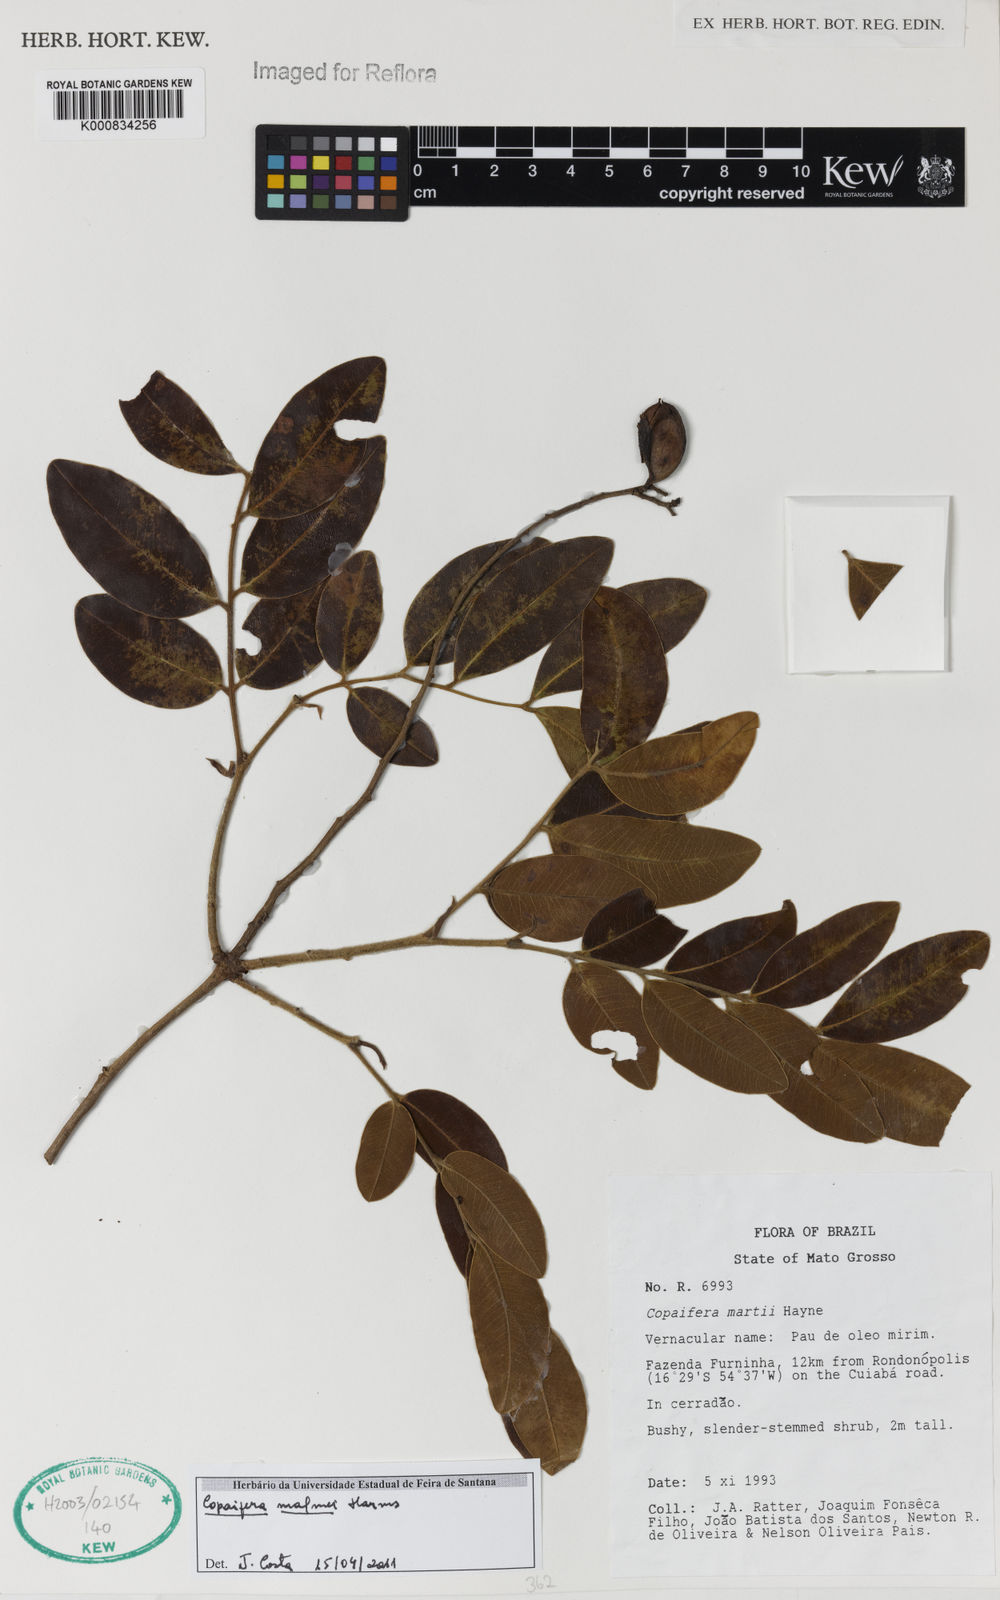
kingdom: Plantae
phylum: Tracheophyta
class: Magnoliopsida
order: Fabales
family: Fabaceae
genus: Copaifera
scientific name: Copaifera malmei
